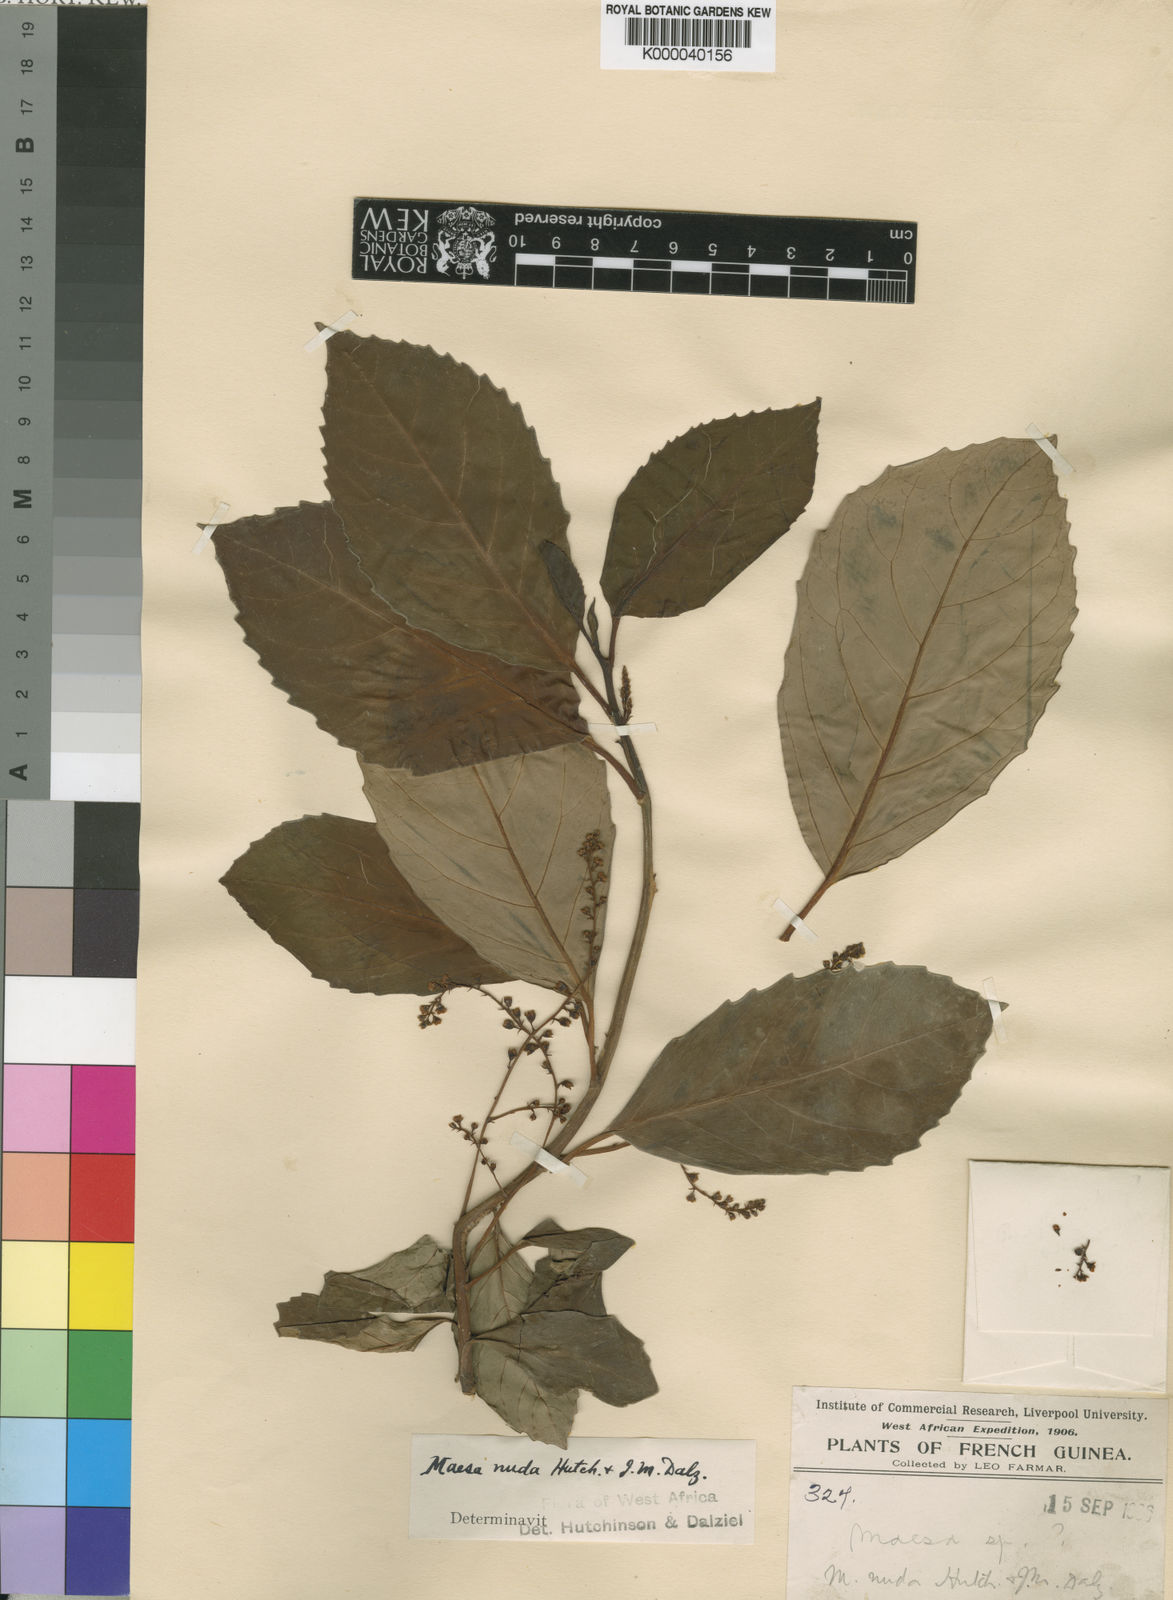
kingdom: Plantae
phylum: Tracheophyta
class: Magnoliopsida
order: Ericales
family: Primulaceae
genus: Maesa
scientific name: Maesa nuda
